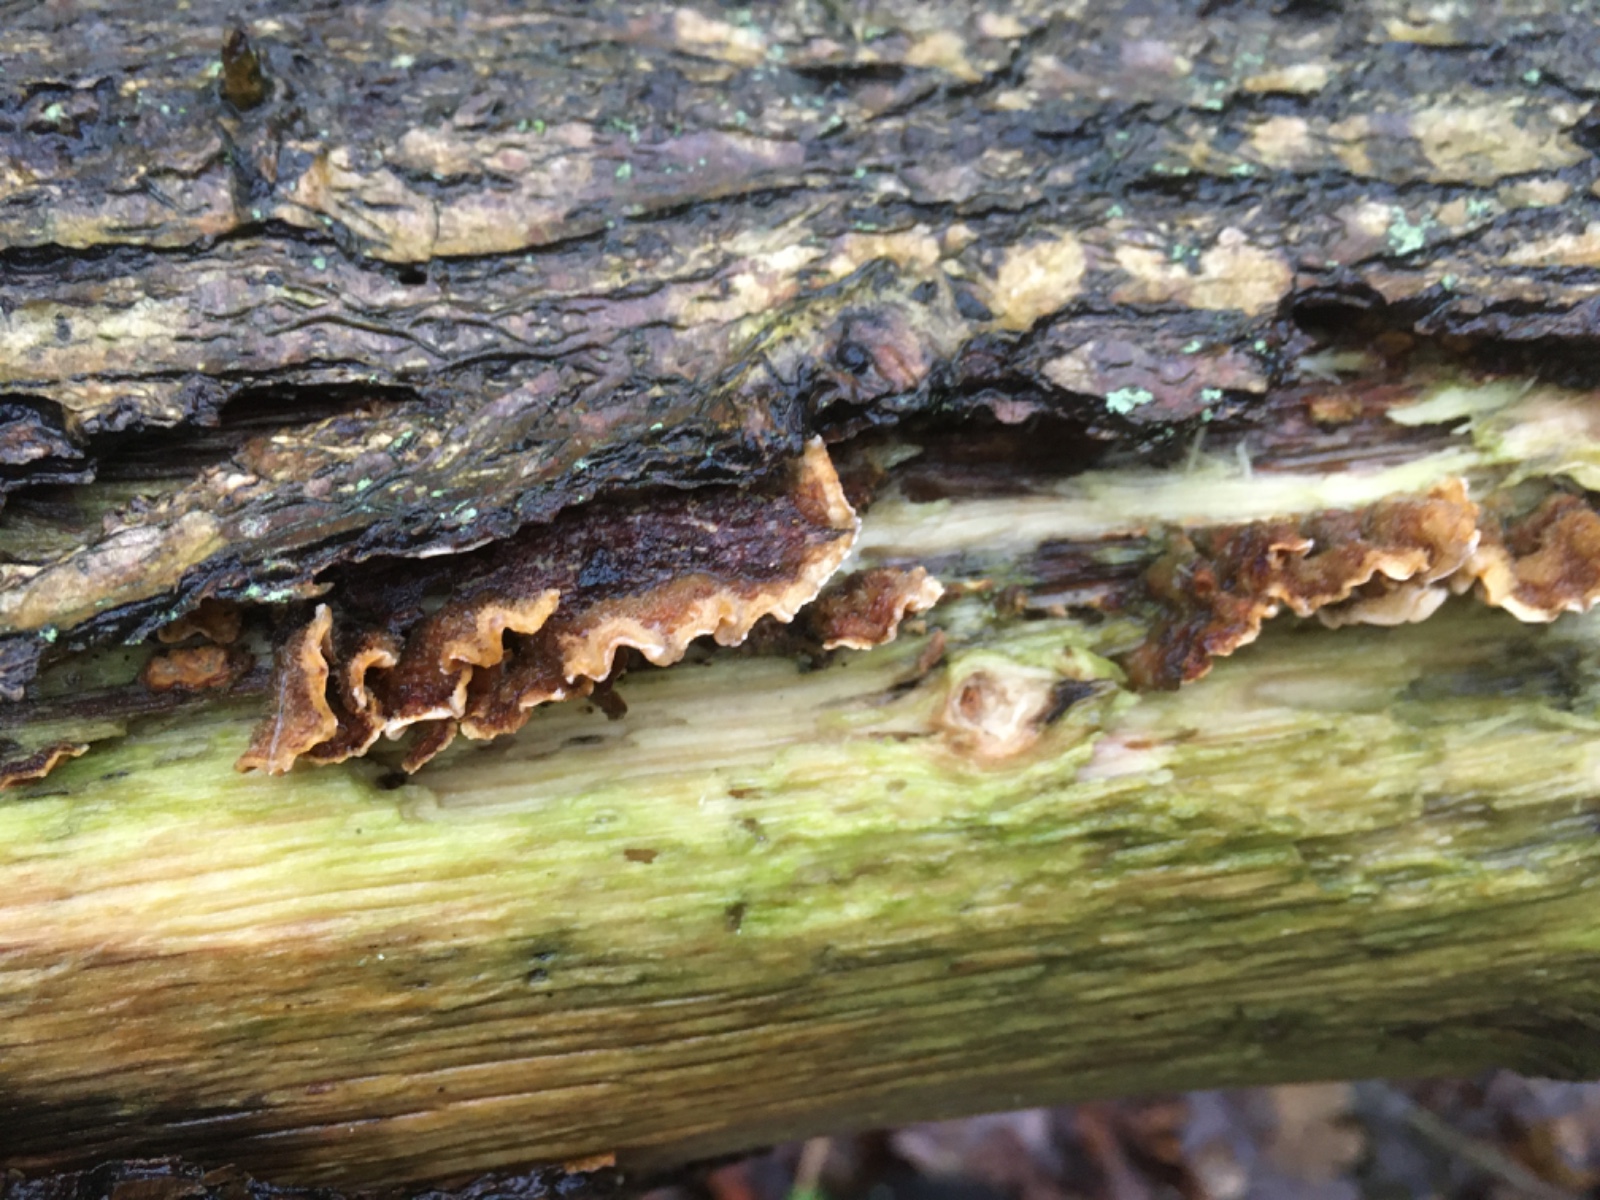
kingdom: Fungi
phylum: Basidiomycota
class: Agaricomycetes
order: Russulales
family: Stereaceae
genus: Stereum
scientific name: Stereum hirsutum
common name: håret lædersvamp
